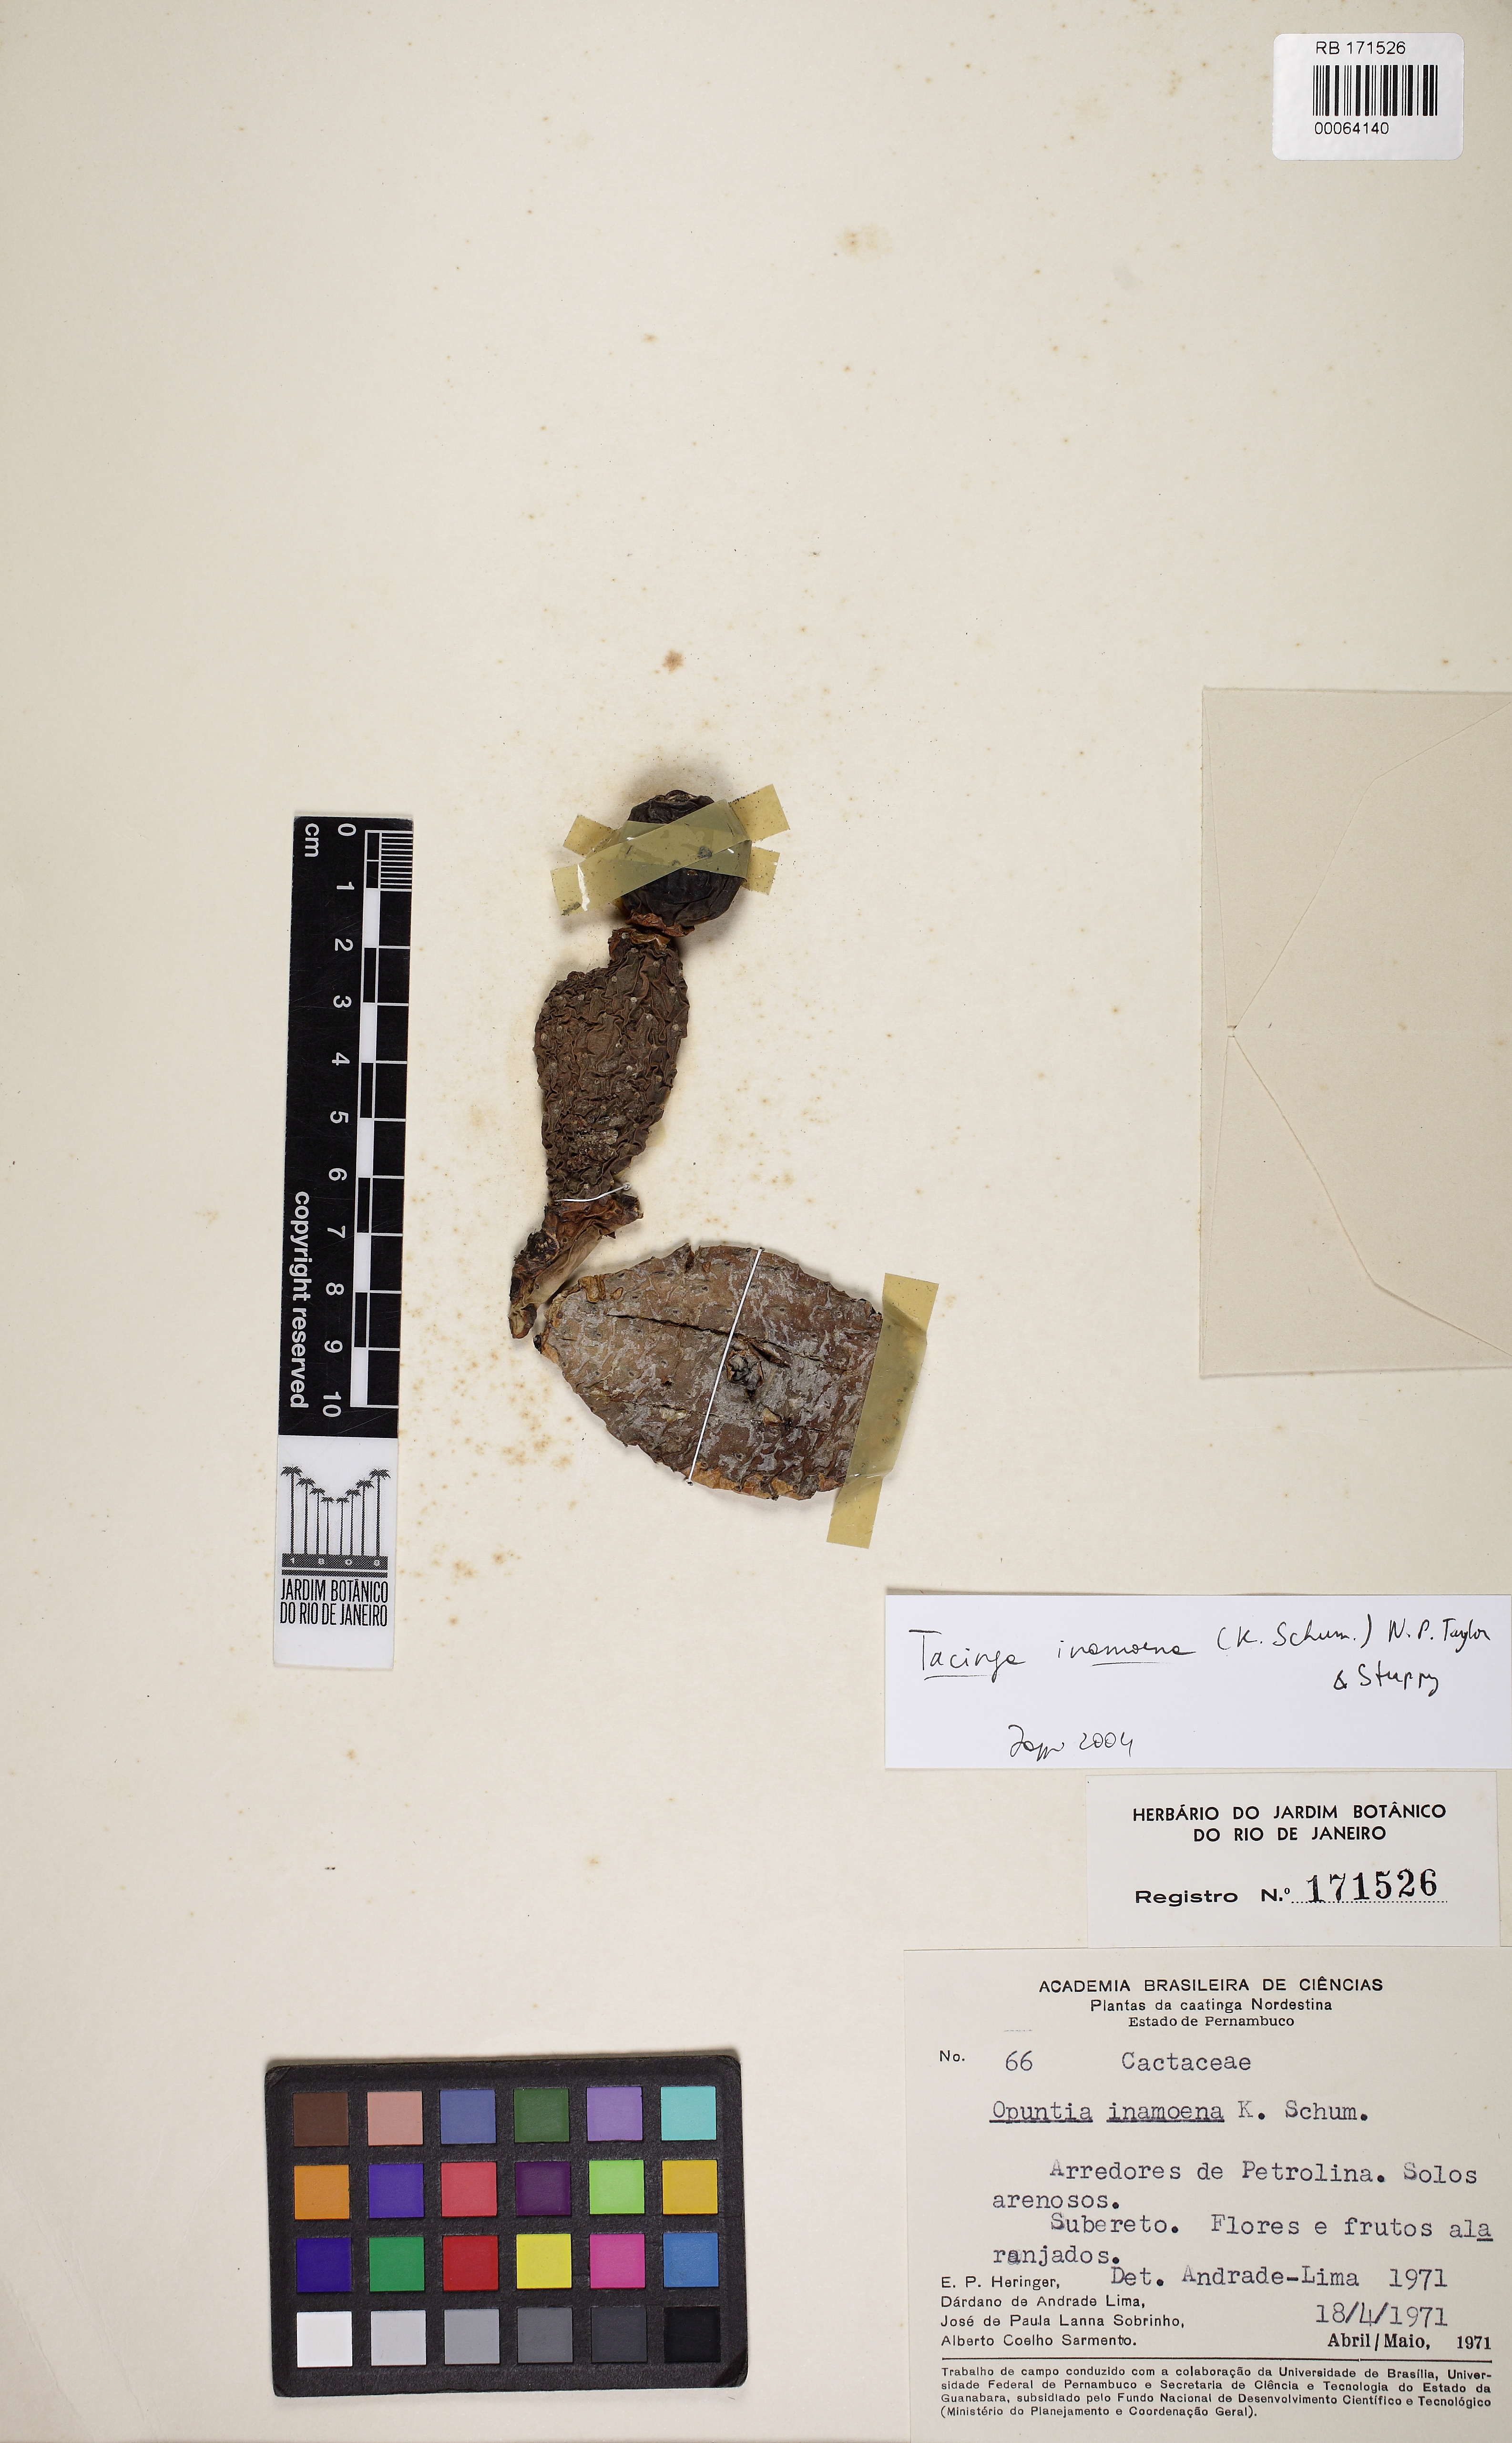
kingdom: Plantae
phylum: Tracheophyta
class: Magnoliopsida
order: Caryophyllales
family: Cactaceae
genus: Tacinga
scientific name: Tacinga inamoena
